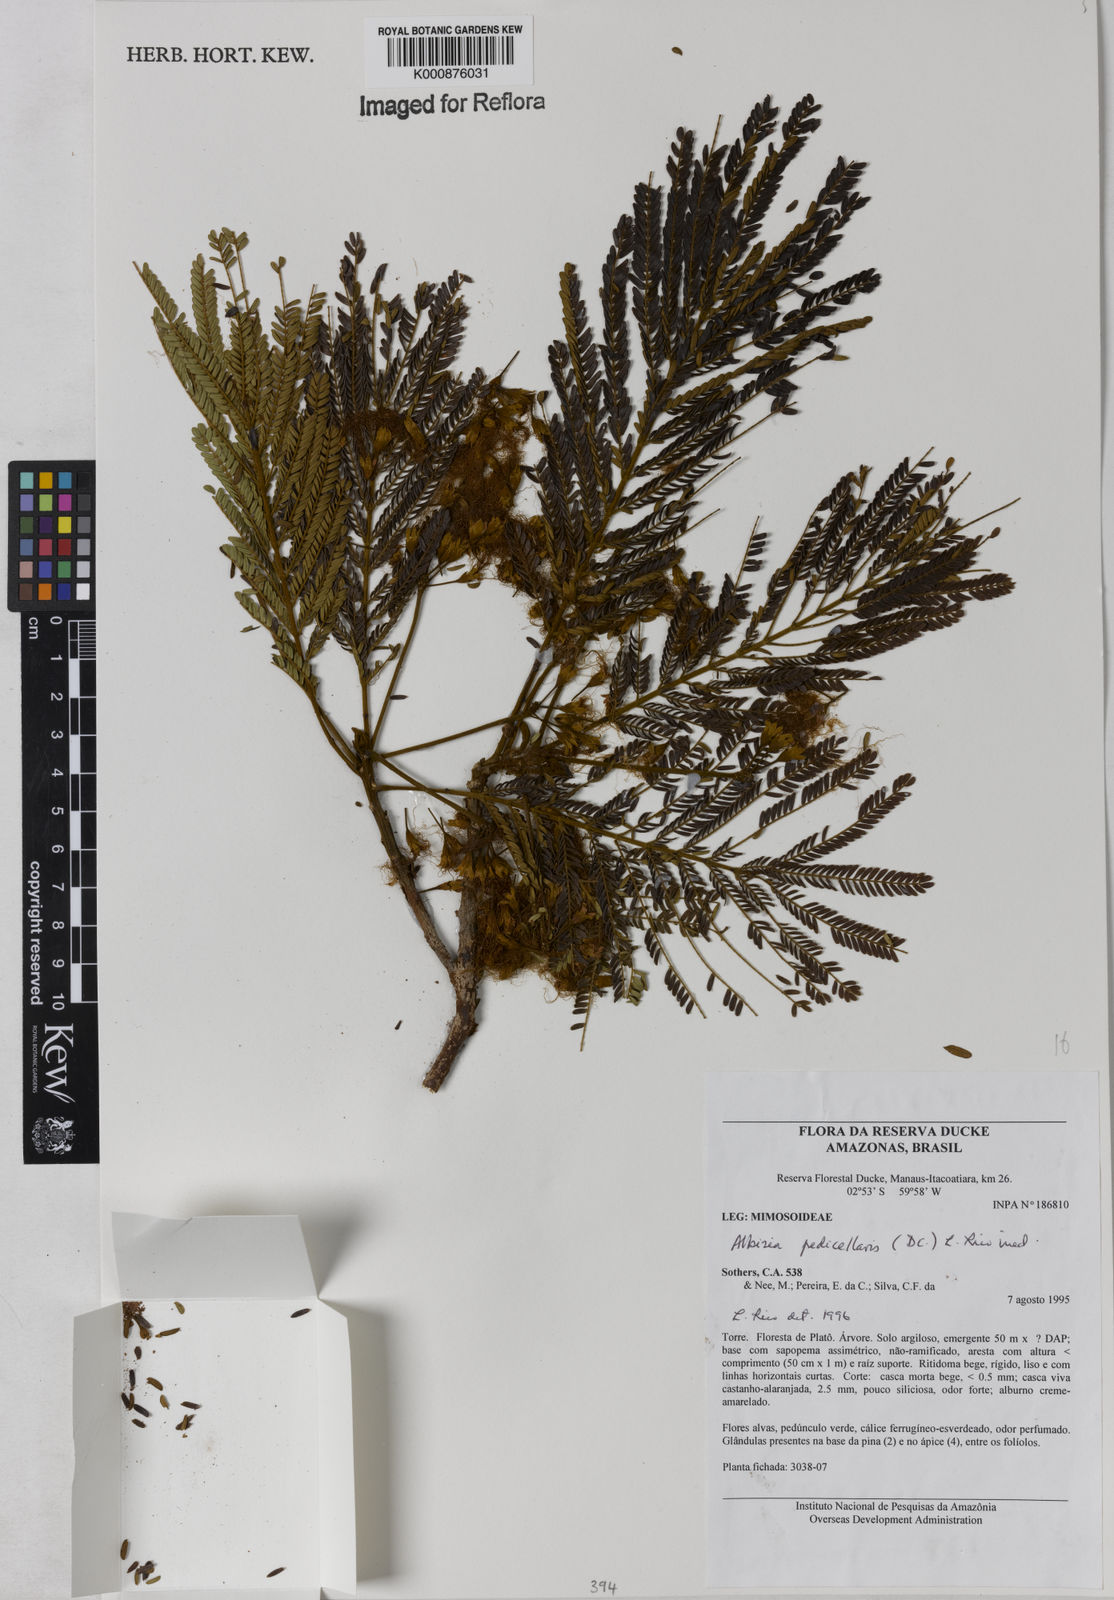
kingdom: Plantae
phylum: Tracheophyta
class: Magnoliopsida
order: Fabales
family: Fabaceae
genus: Balizia
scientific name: Balizia pedicellaris
